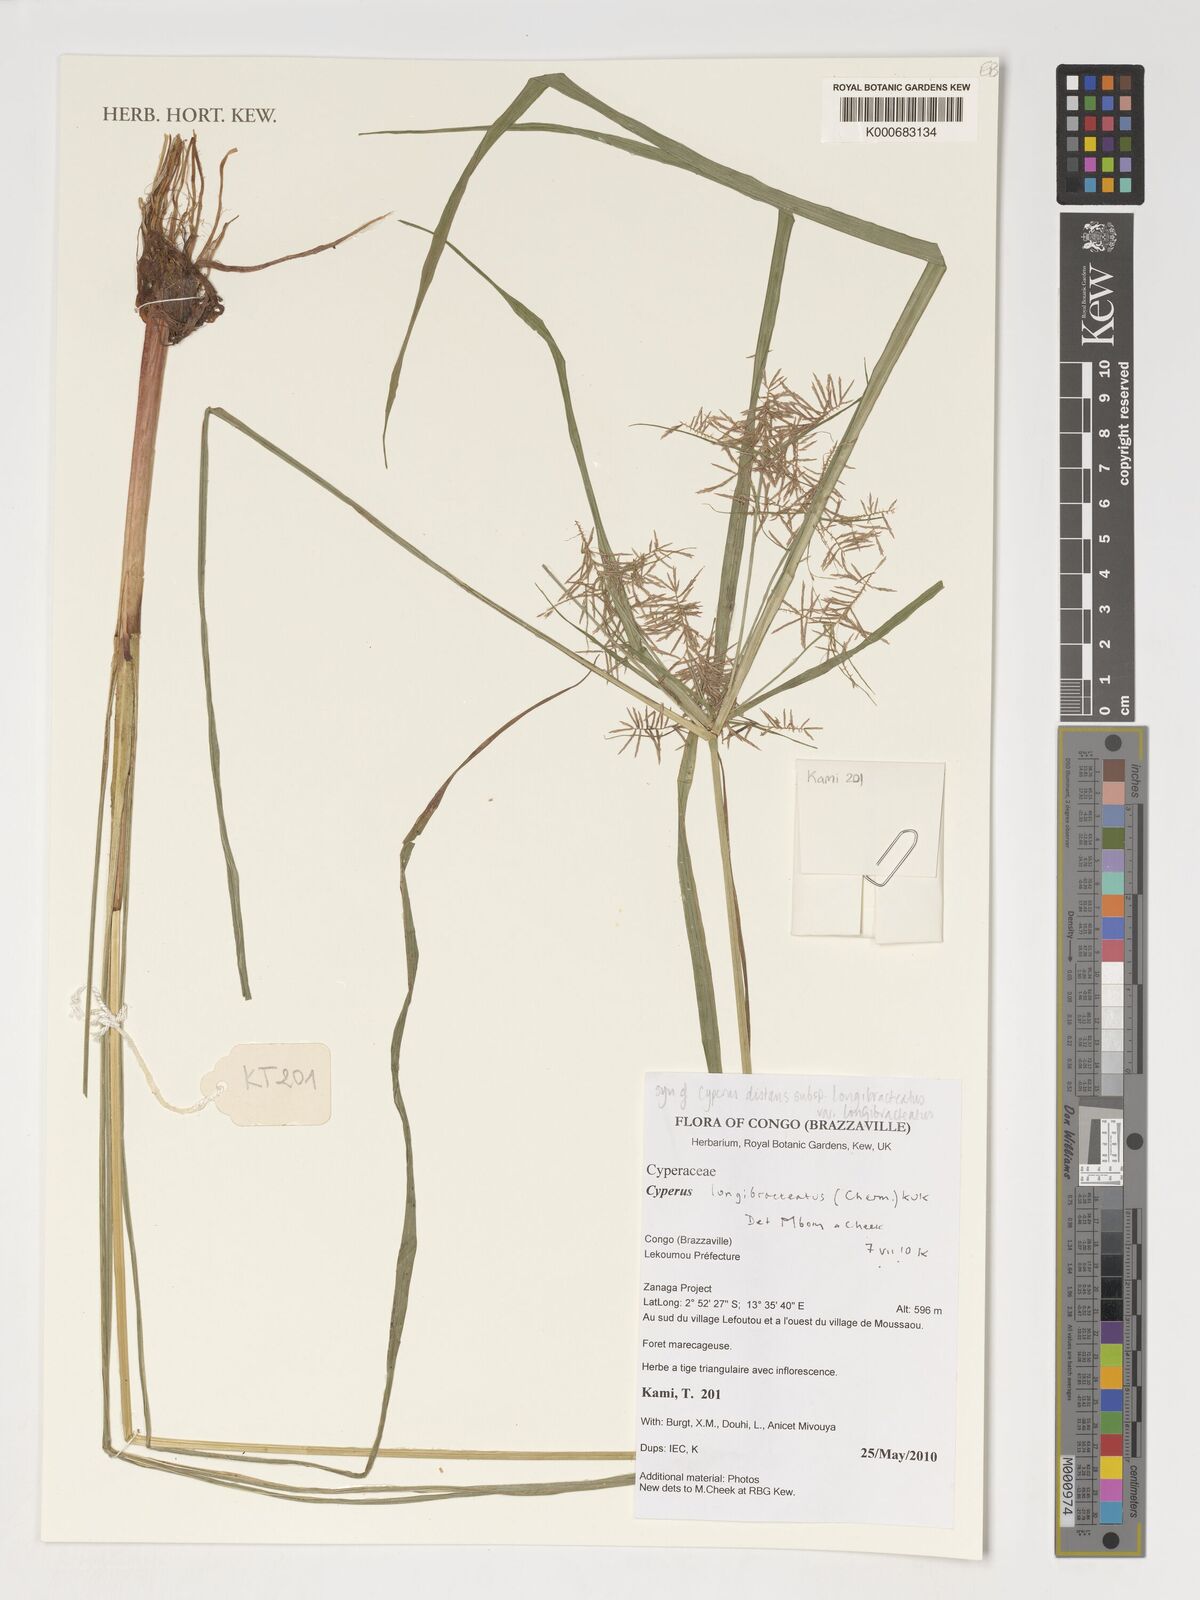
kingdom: Plantae
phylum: Tracheophyta
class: Liliopsida
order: Poales
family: Cyperaceae
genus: Cyperus
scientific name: Cyperus distans
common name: Slender cyperus
